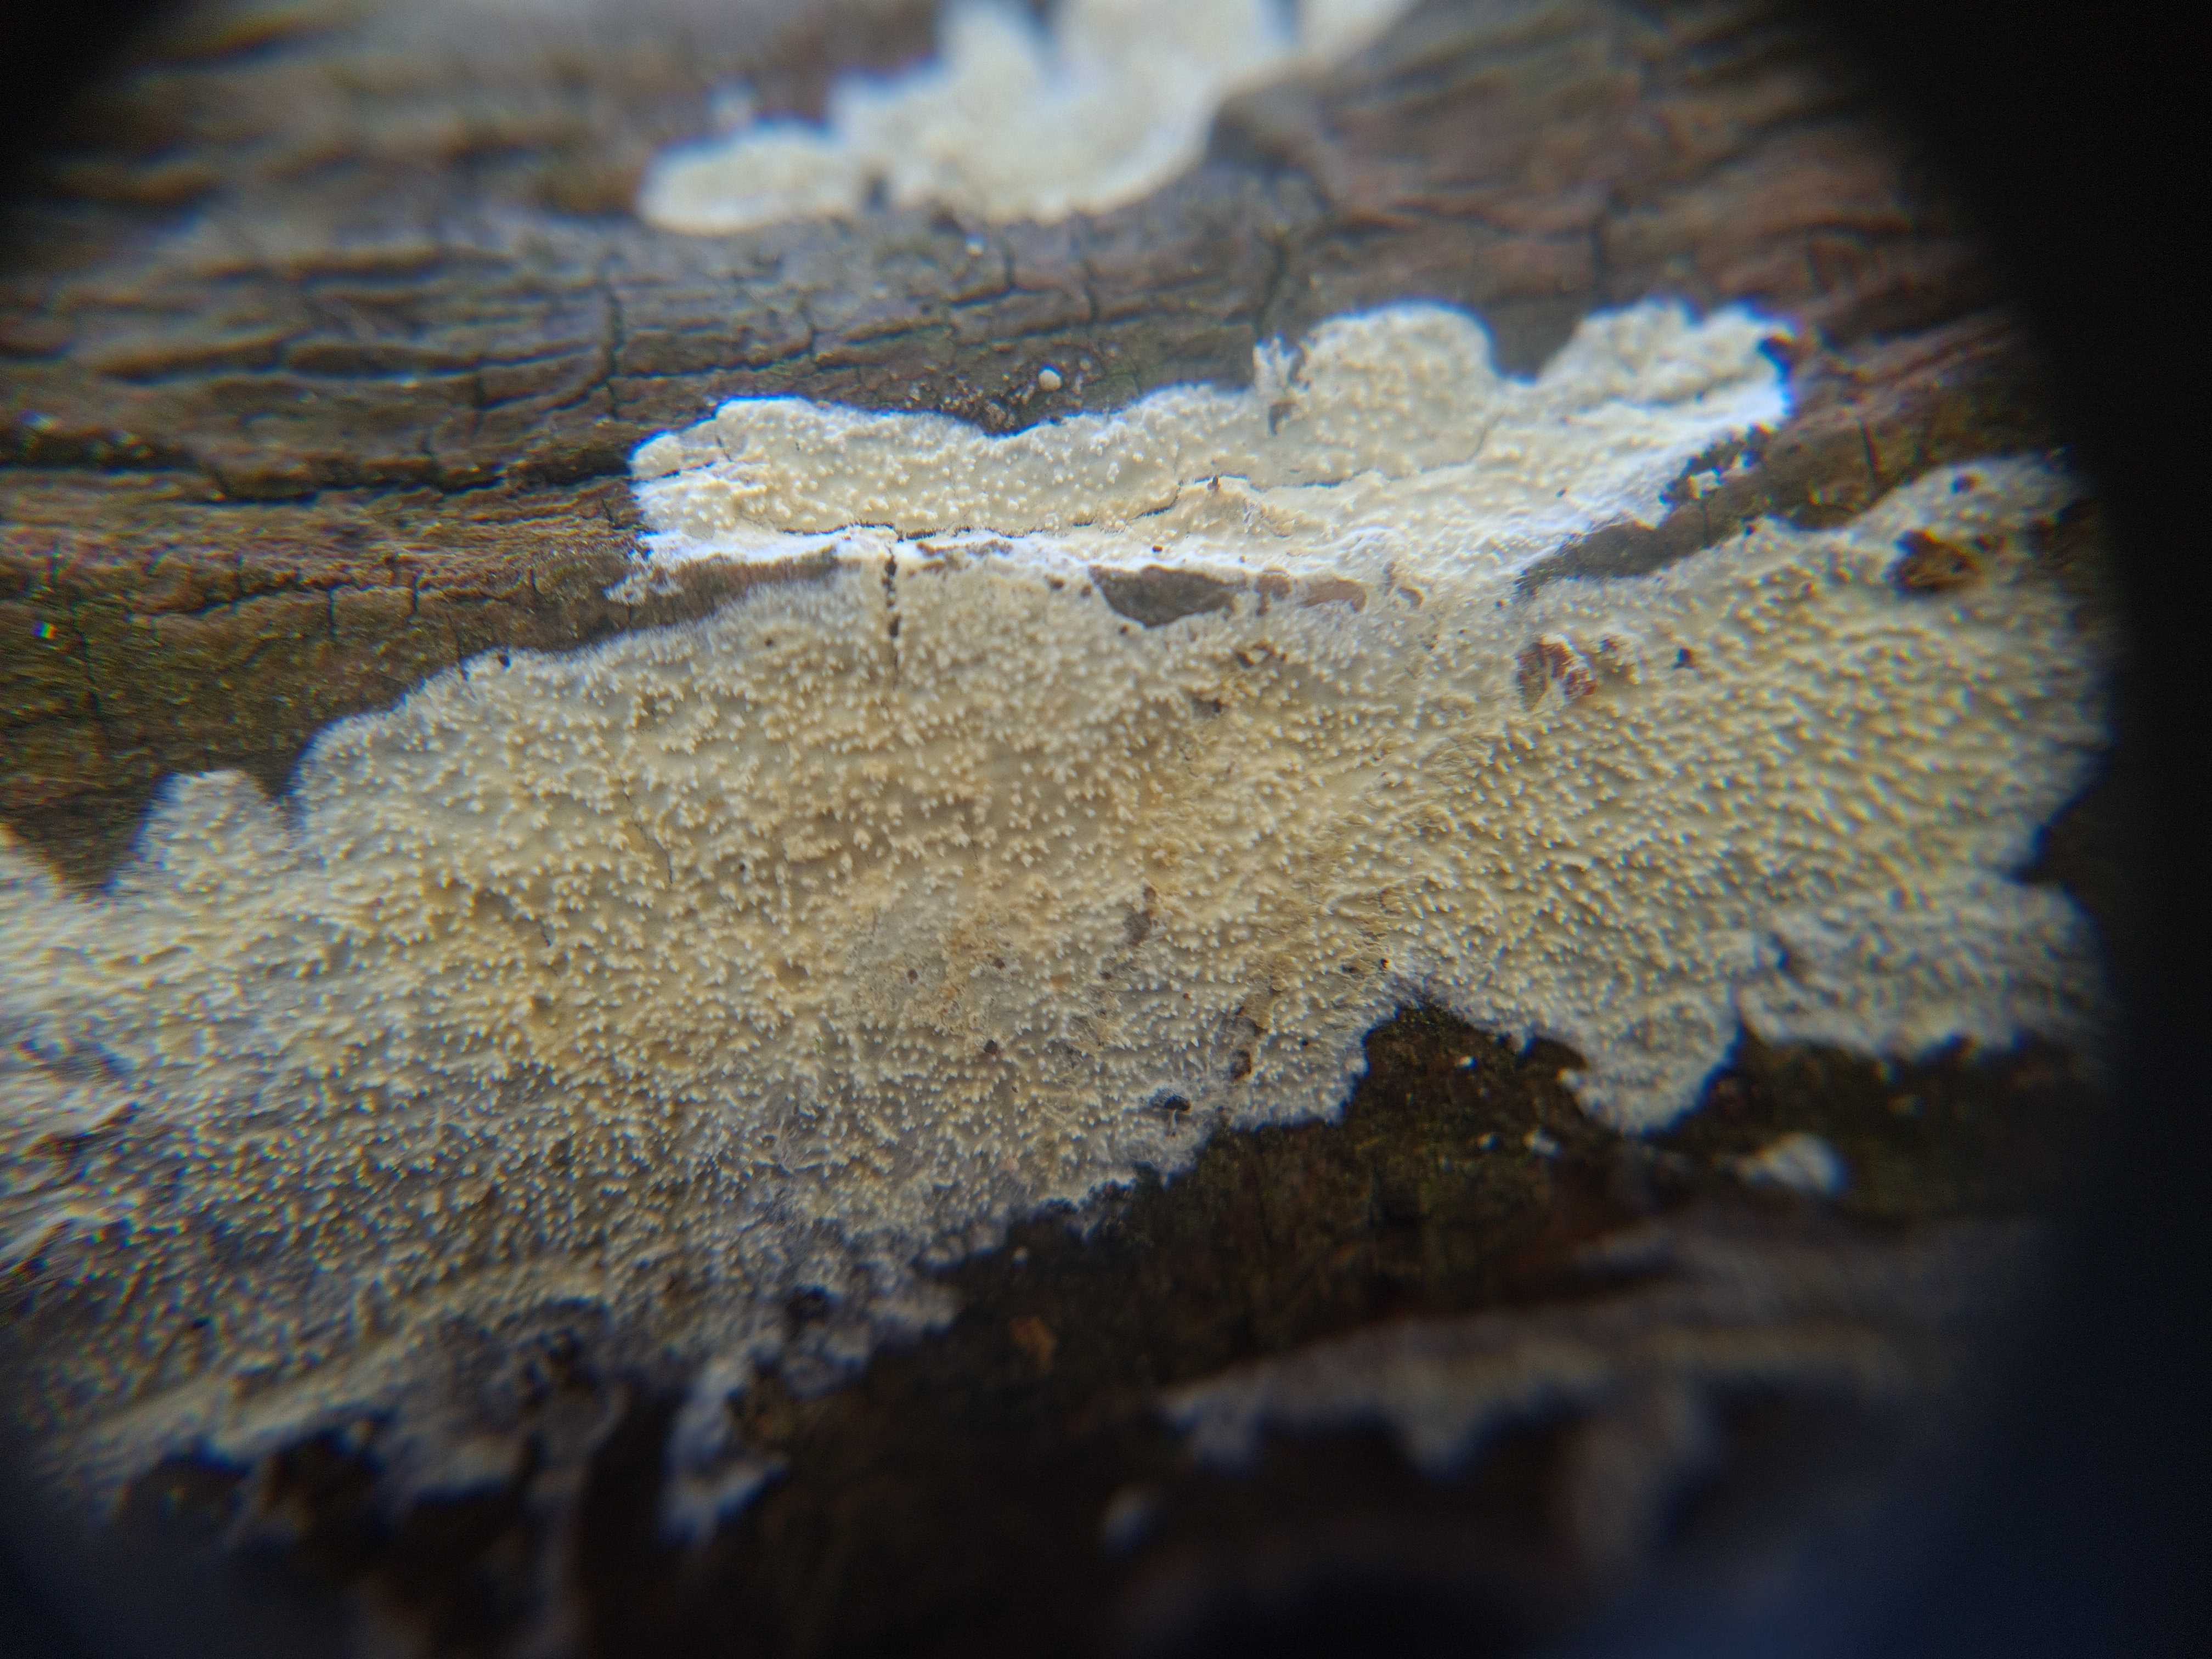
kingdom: Fungi
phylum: Basidiomycota
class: Agaricomycetes
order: Corticiales
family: Corticiaceae
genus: Lyomyces
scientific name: Lyomyces crustosus
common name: vortet hyldehinde
